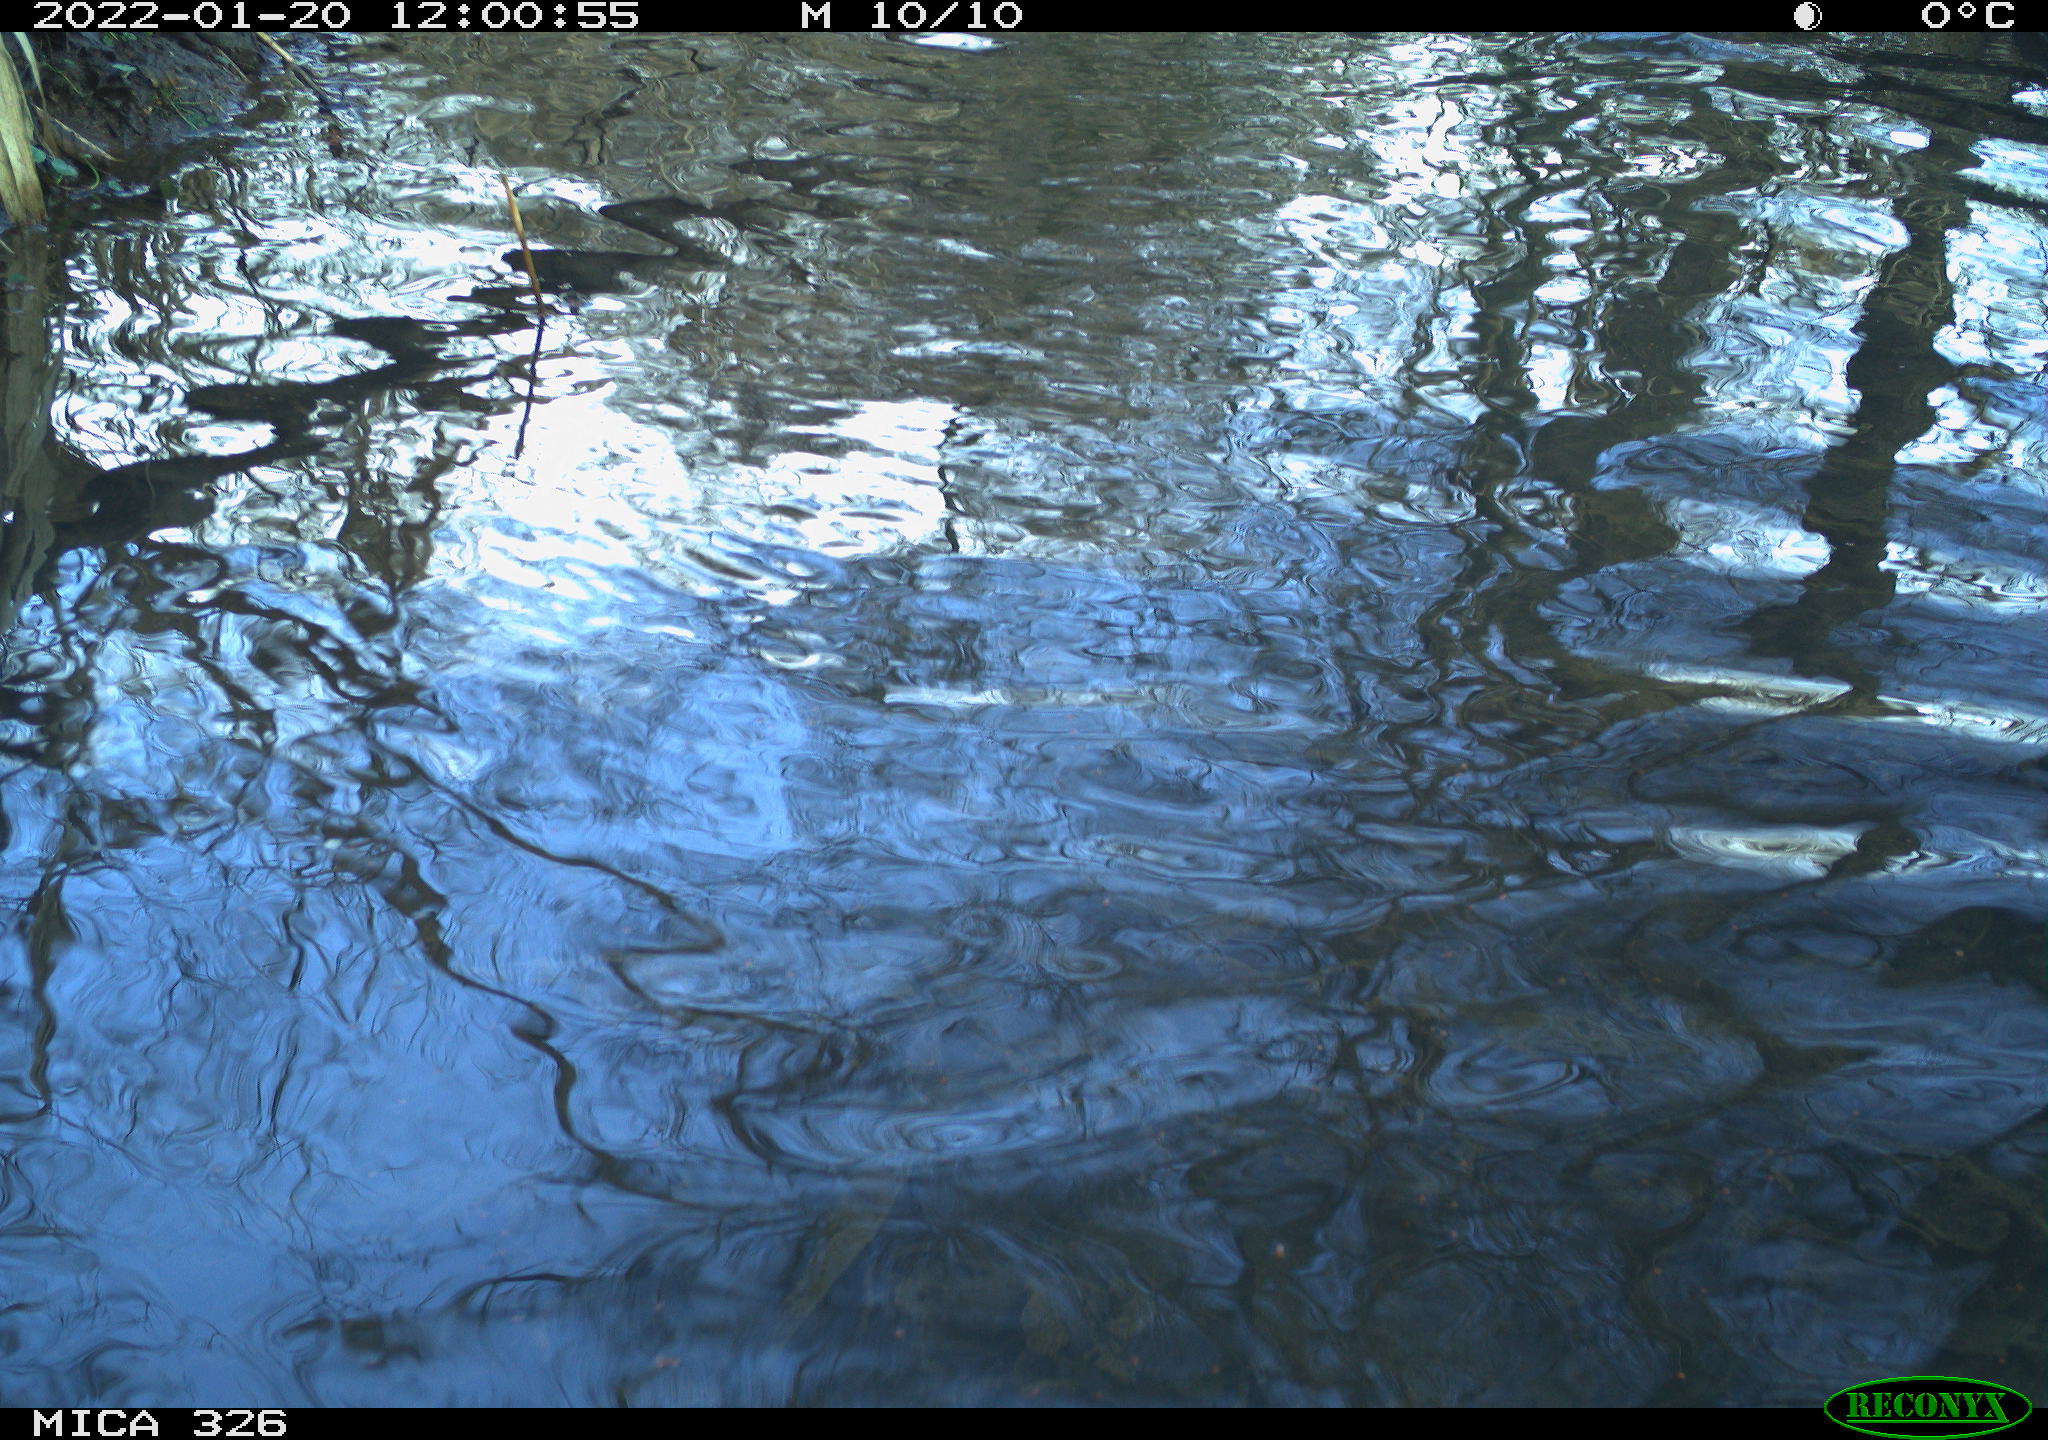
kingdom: Animalia
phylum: Chordata
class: Aves
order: Gruiformes
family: Rallidae
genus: Gallinula
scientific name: Gallinula chloropus
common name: Common moorhen
